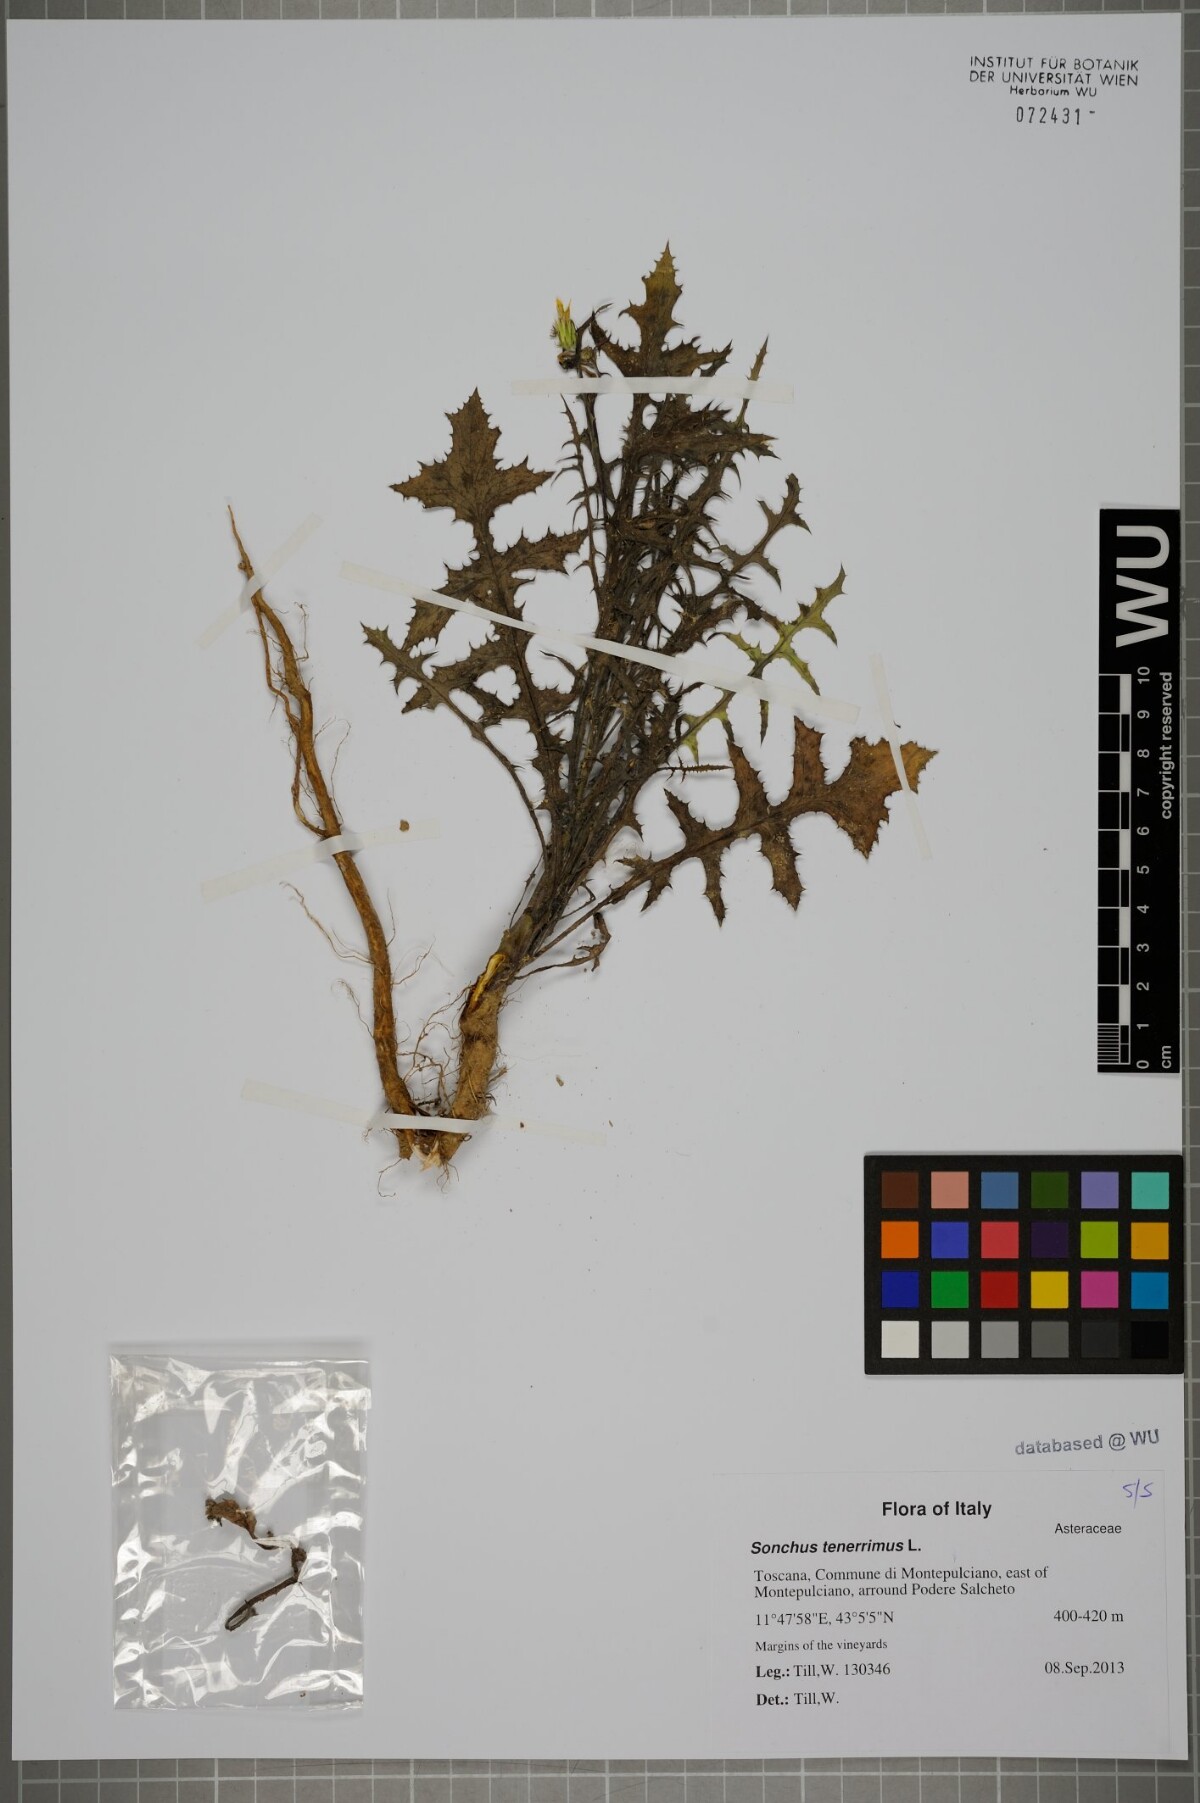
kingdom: Plantae
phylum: Tracheophyta
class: Magnoliopsida
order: Asterales
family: Asteraceae
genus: Sonchus
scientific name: Sonchus tenerrimus
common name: Clammy sowthistle
